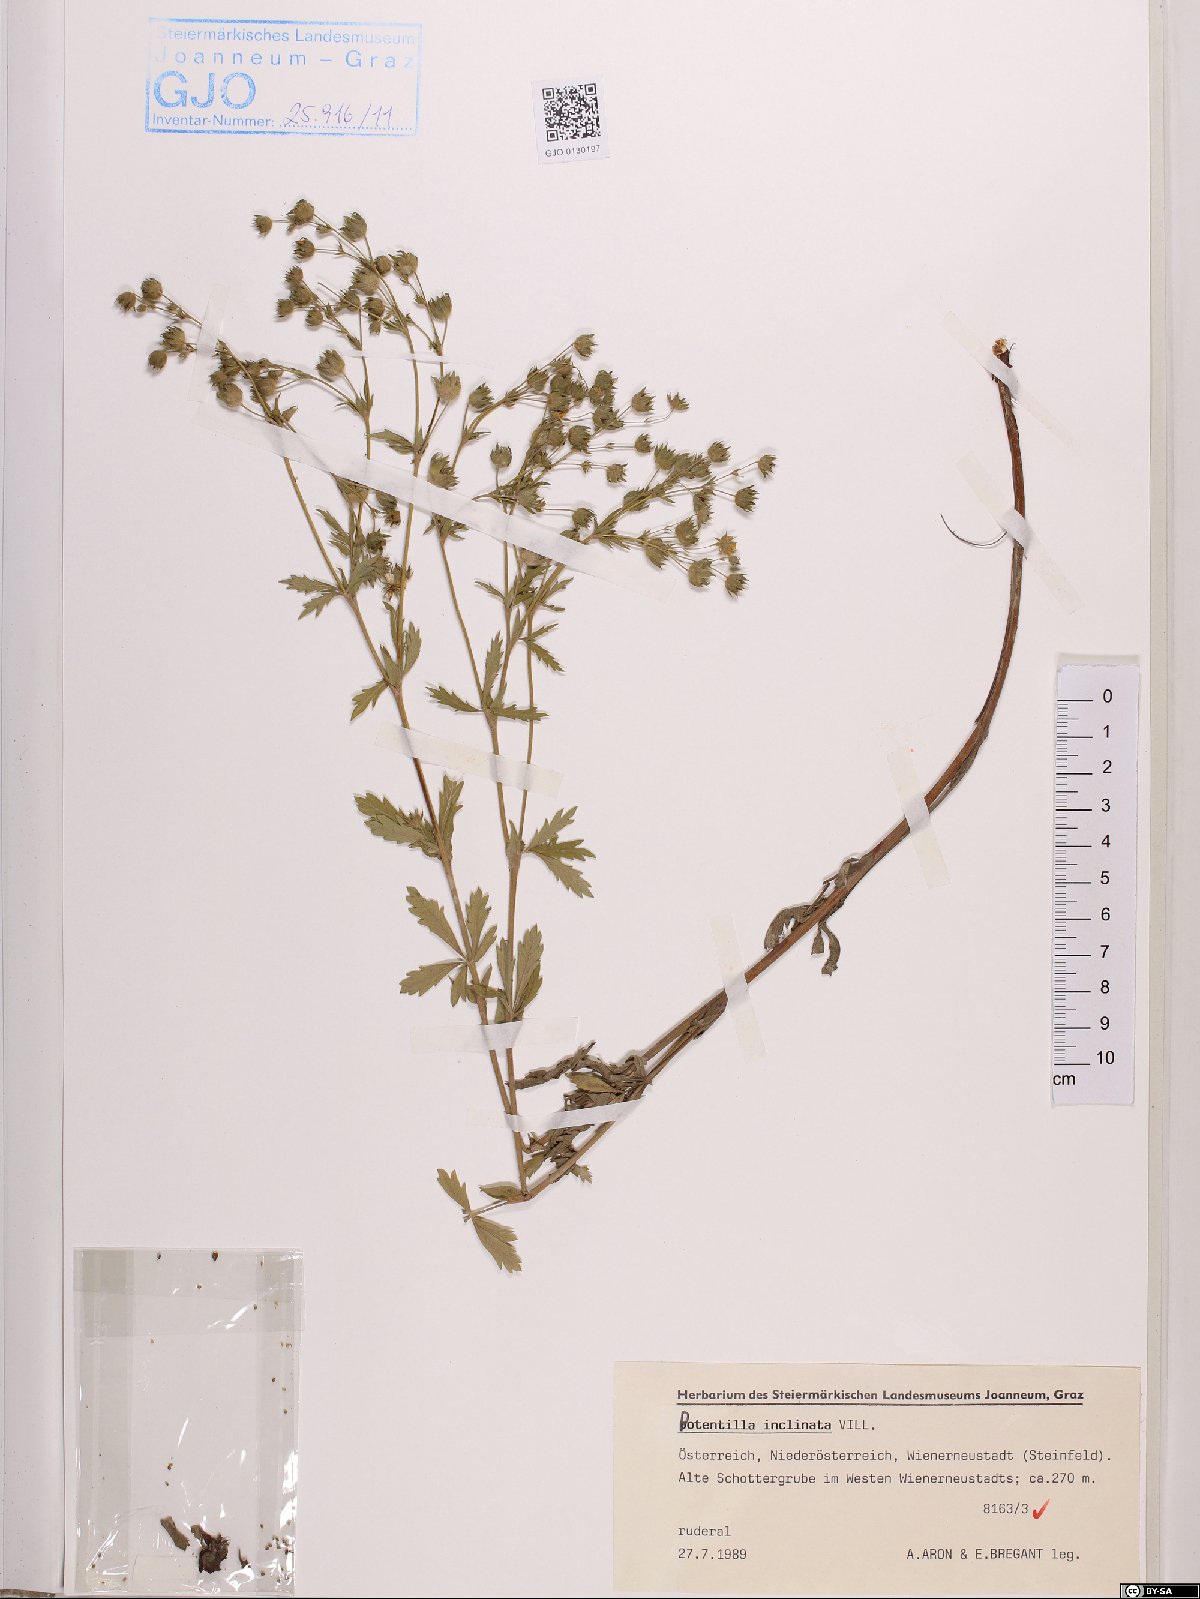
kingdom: Plantae
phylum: Tracheophyta
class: Magnoliopsida
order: Rosales
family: Rosaceae
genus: Potentilla
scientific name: Potentilla inclinata
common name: Grey cinquefoil
